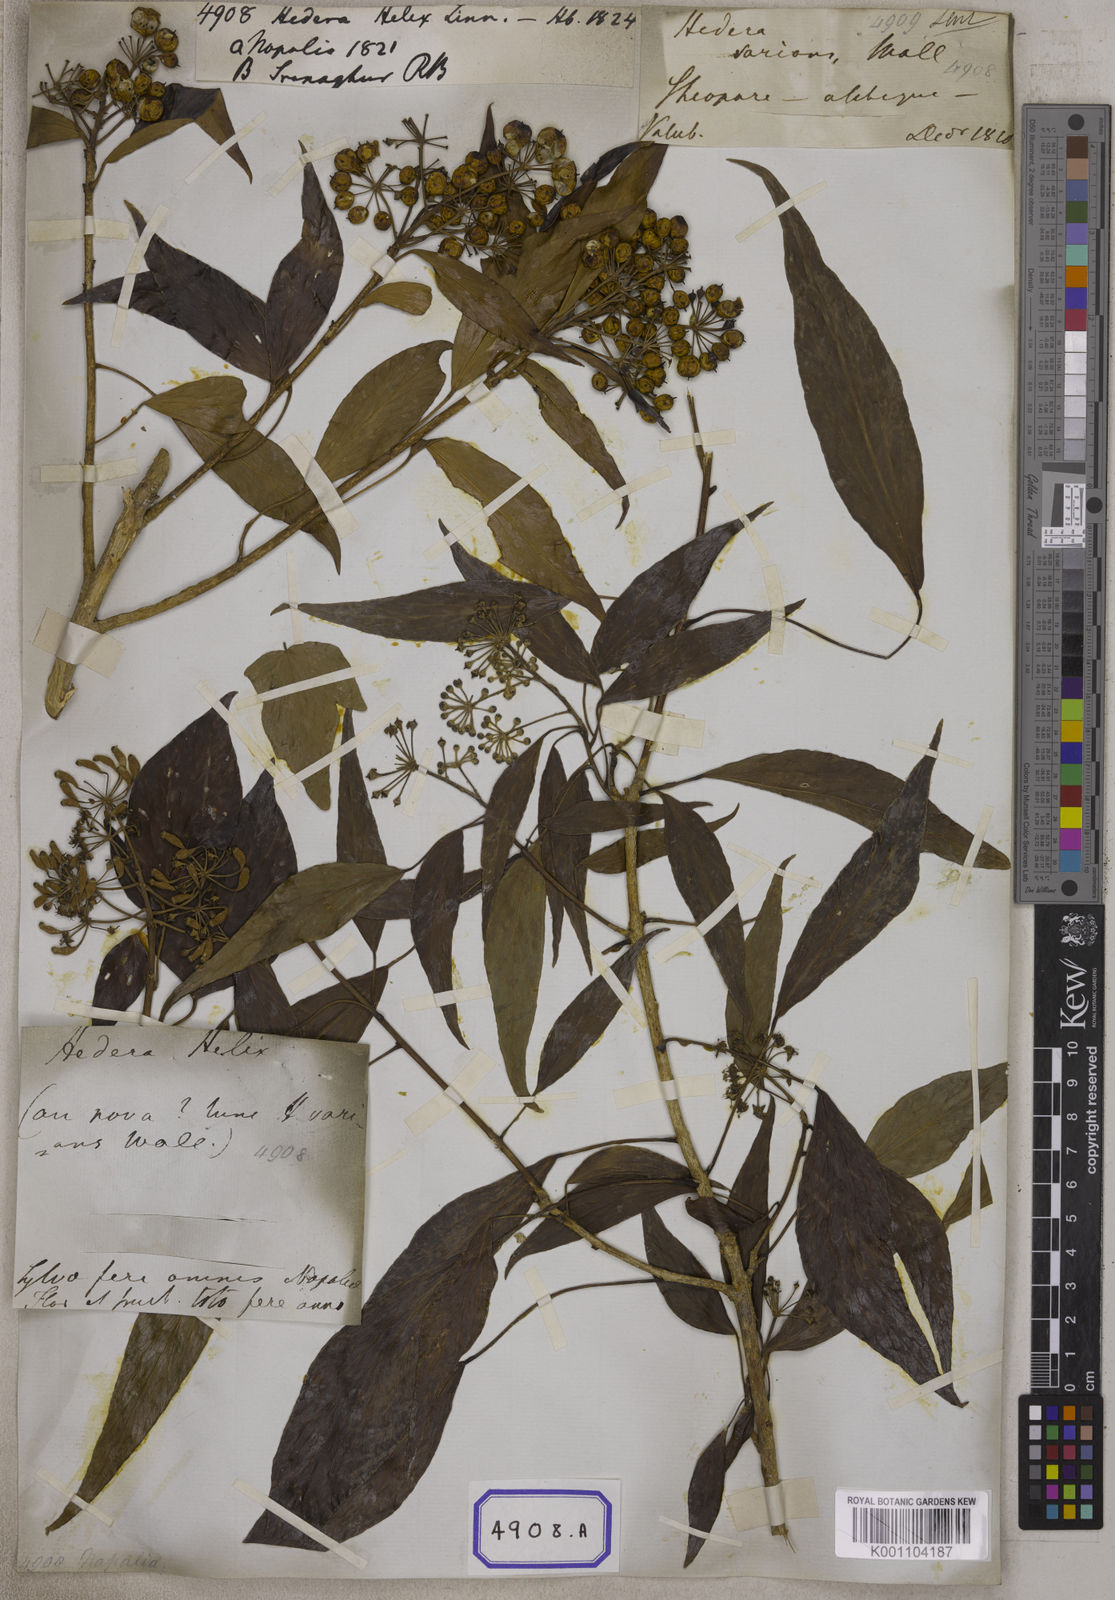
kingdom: Plantae
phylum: Tracheophyta
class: Magnoliopsida
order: Apiales
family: Araliaceae
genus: Hedera
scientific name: Hedera helix
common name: Ivy
